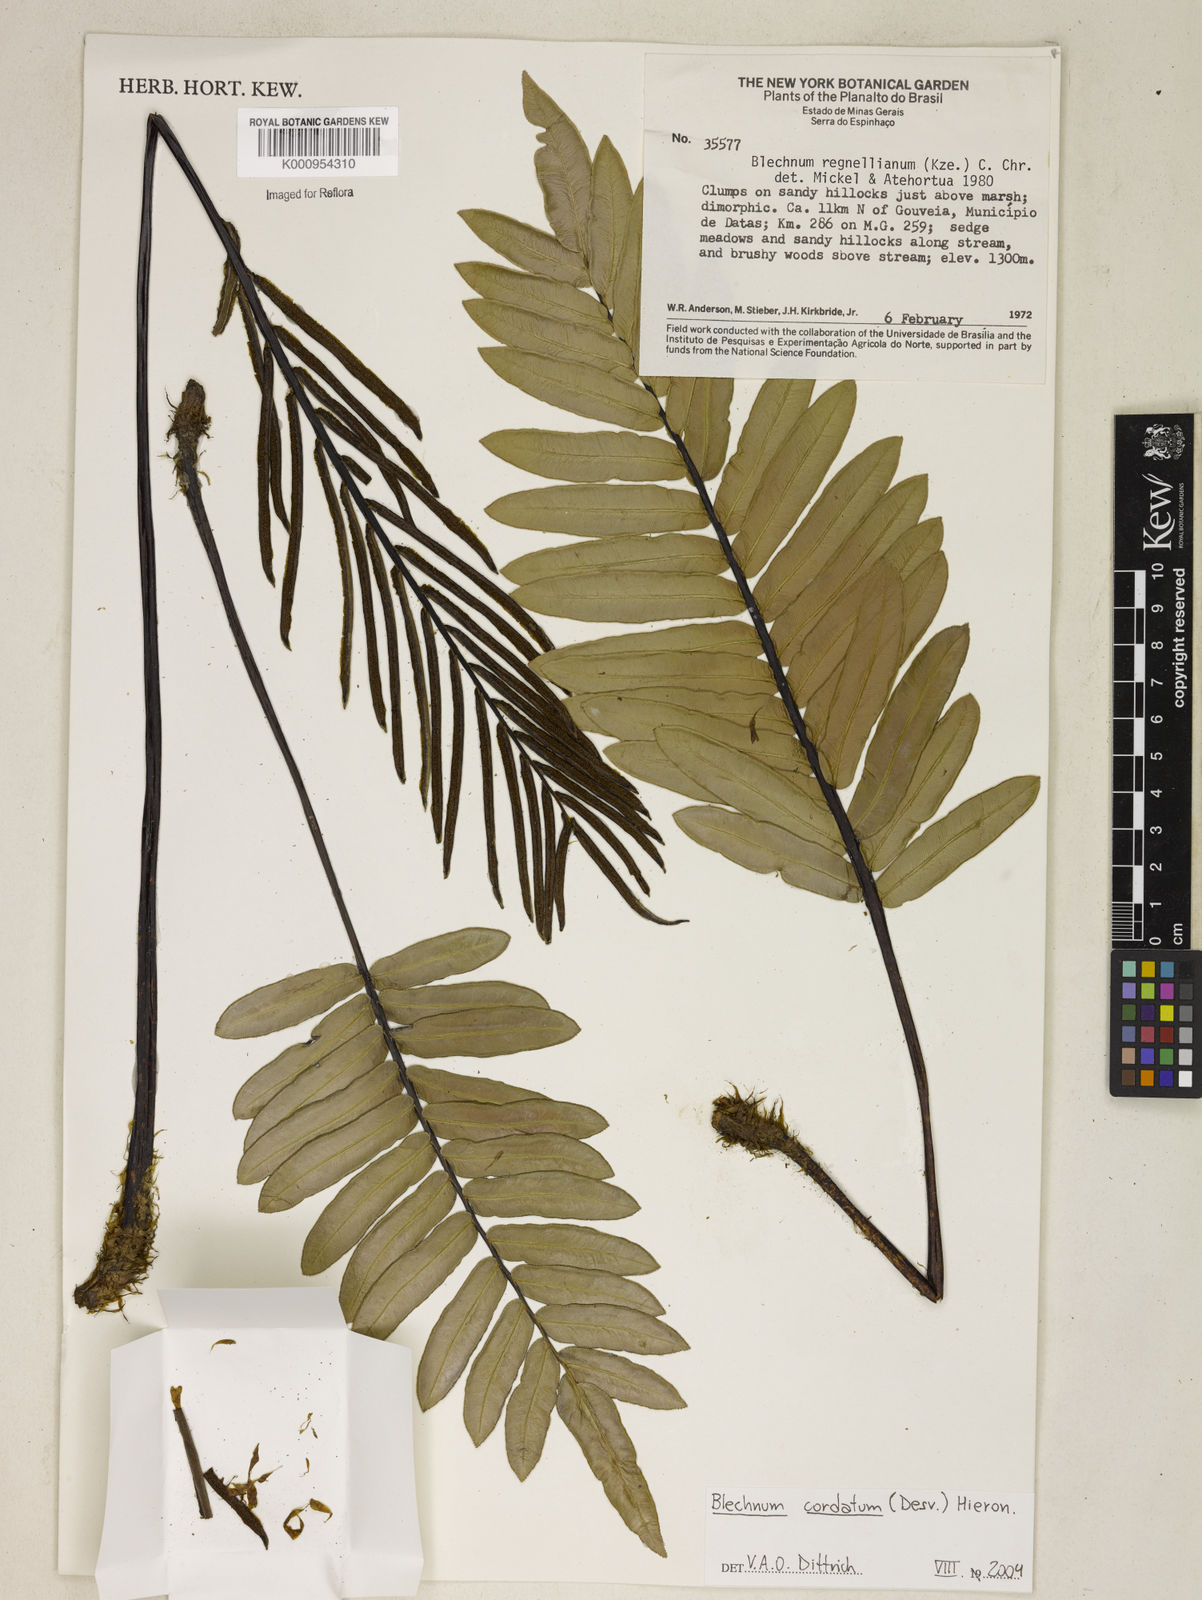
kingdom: Plantae
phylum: Tracheophyta
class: Polypodiopsida
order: Polypodiales
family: Blechnaceae
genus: Parablechnum
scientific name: Parablechnum cordatum
